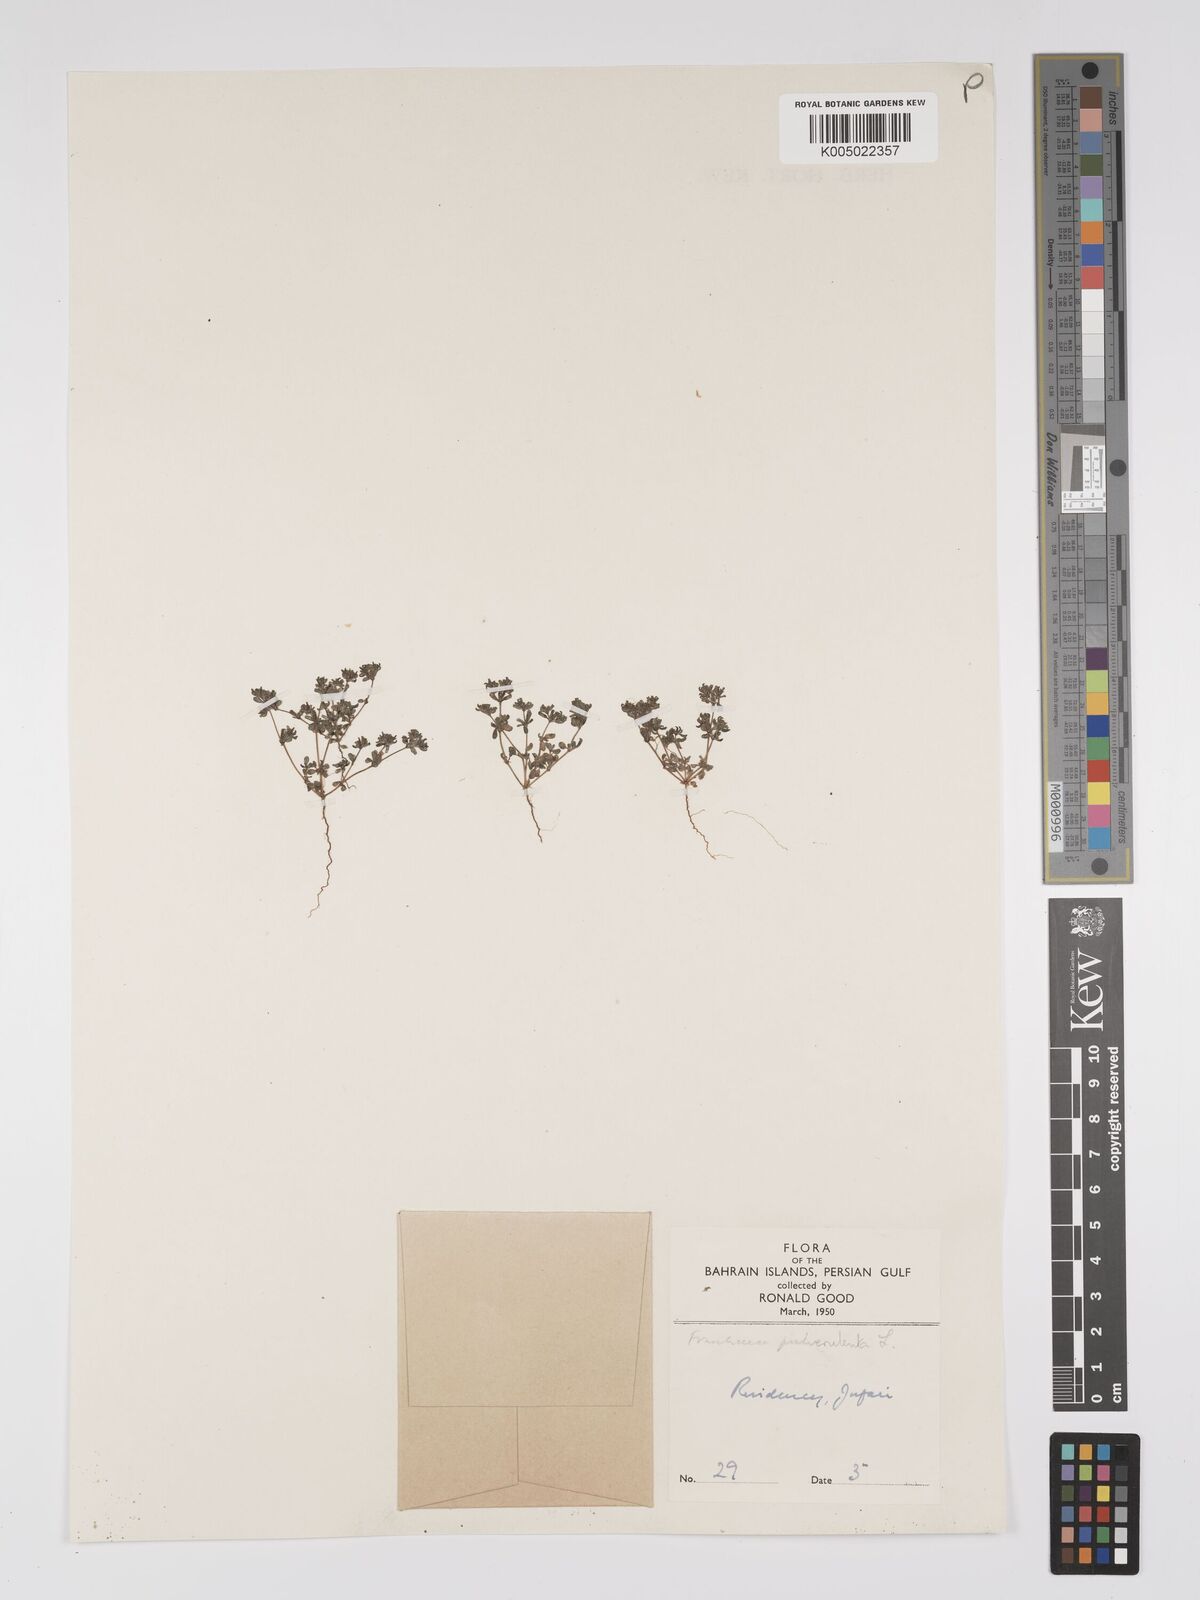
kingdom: Plantae
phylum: Tracheophyta
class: Magnoliopsida
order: Caryophyllales
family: Frankeniaceae
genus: Frankenia
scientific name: Frankenia pulverulenta
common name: European seaheath
